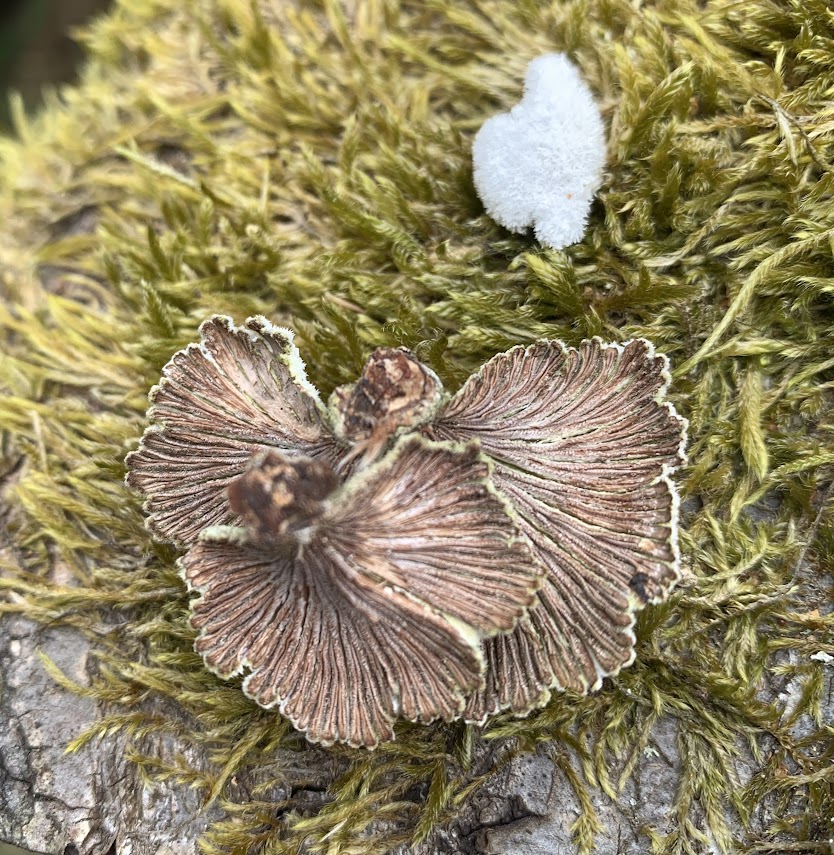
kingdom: Fungi
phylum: Basidiomycota
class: Agaricomycetes
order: Agaricales
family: Schizophyllaceae
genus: Schizophyllum
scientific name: Schizophyllum commune
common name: kløvblad
